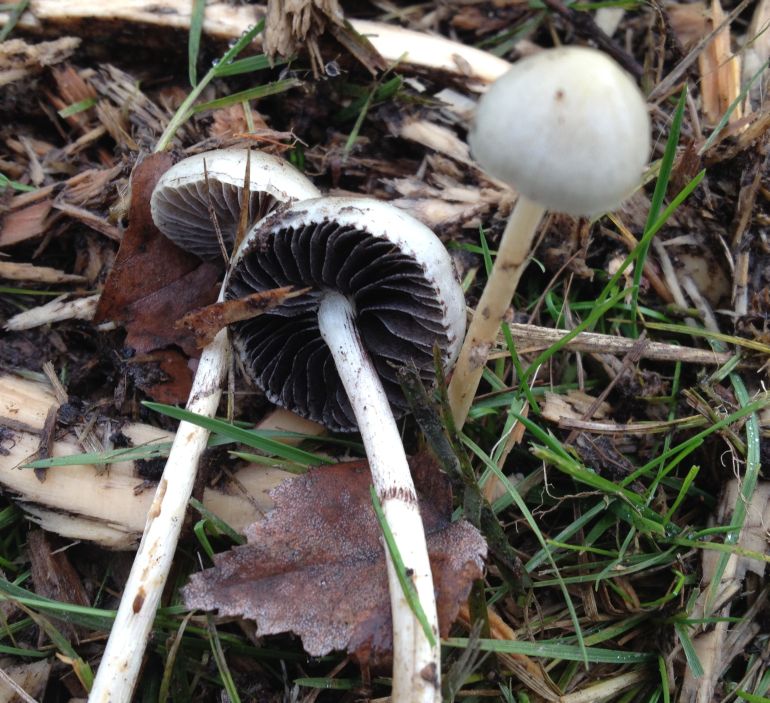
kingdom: Fungi
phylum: Basidiomycota
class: Agaricomycetes
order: Agaricales
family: Bolbitiaceae
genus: Panaeolus
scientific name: Panaeolus semiovatus
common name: ring-glanshat
